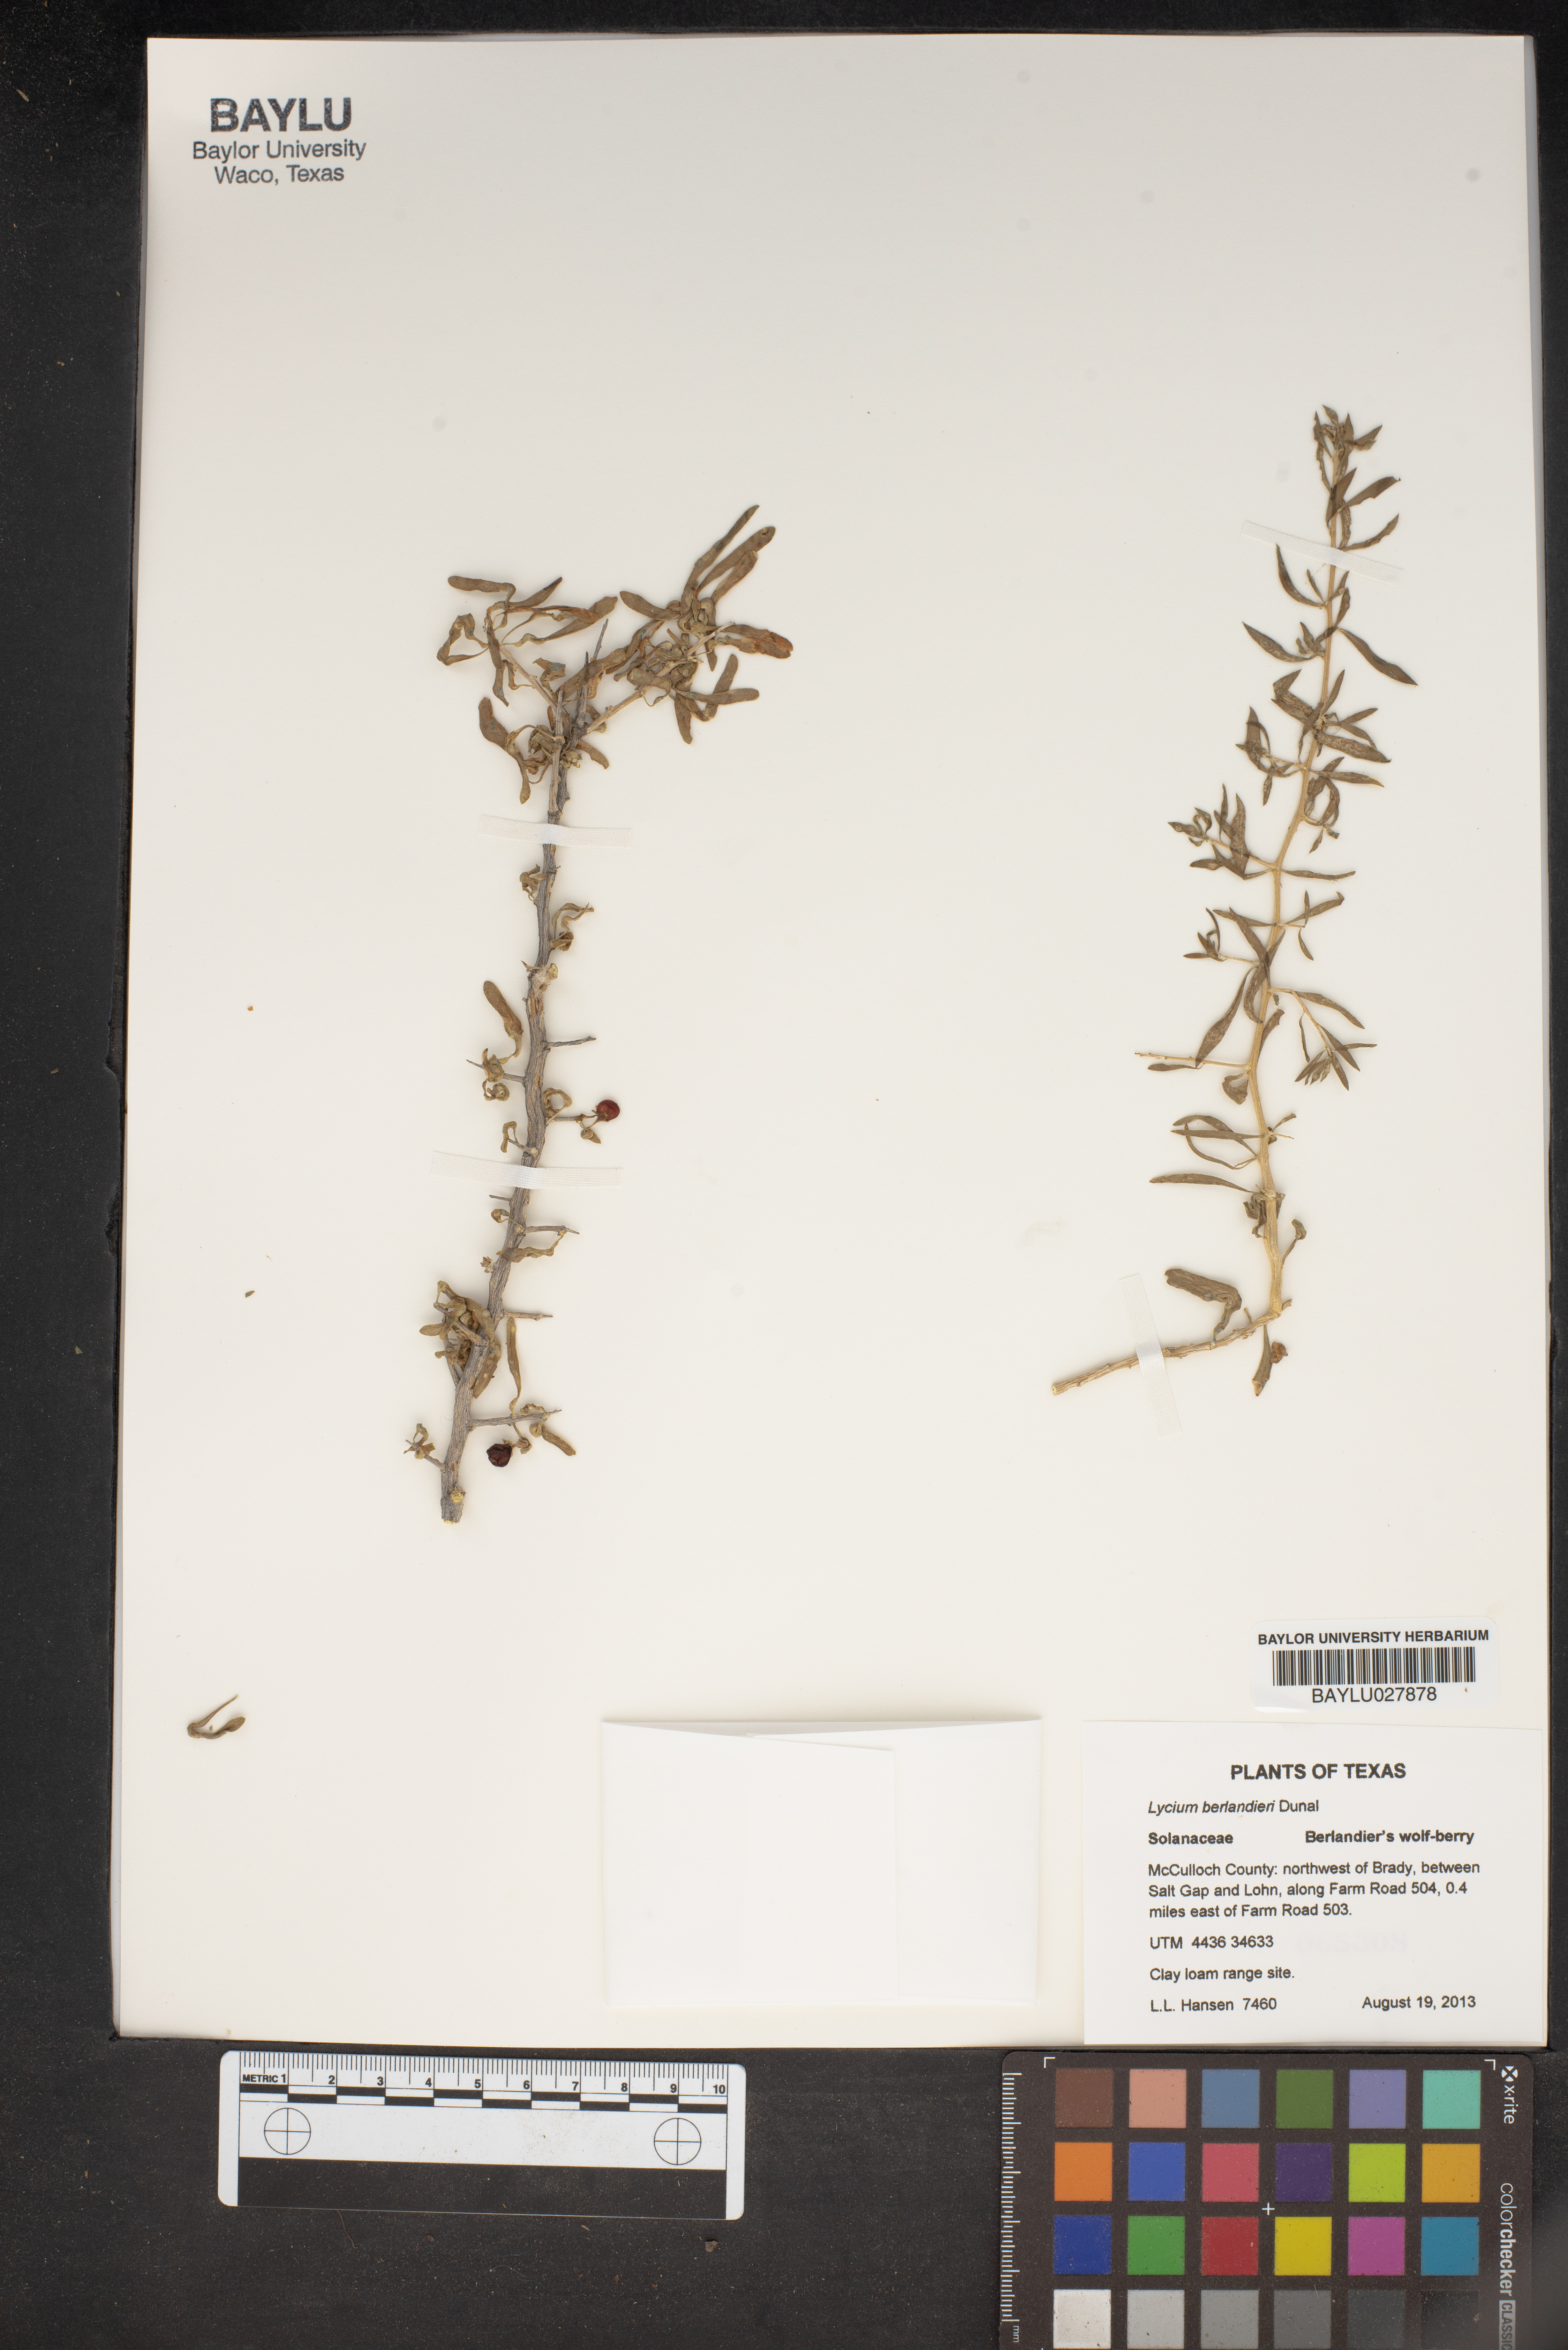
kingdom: Plantae
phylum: Tracheophyta
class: Magnoliopsida
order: Solanales
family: Solanaceae
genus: Lycium
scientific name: Lycium berlandieri
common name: Berlandier wolfberry
